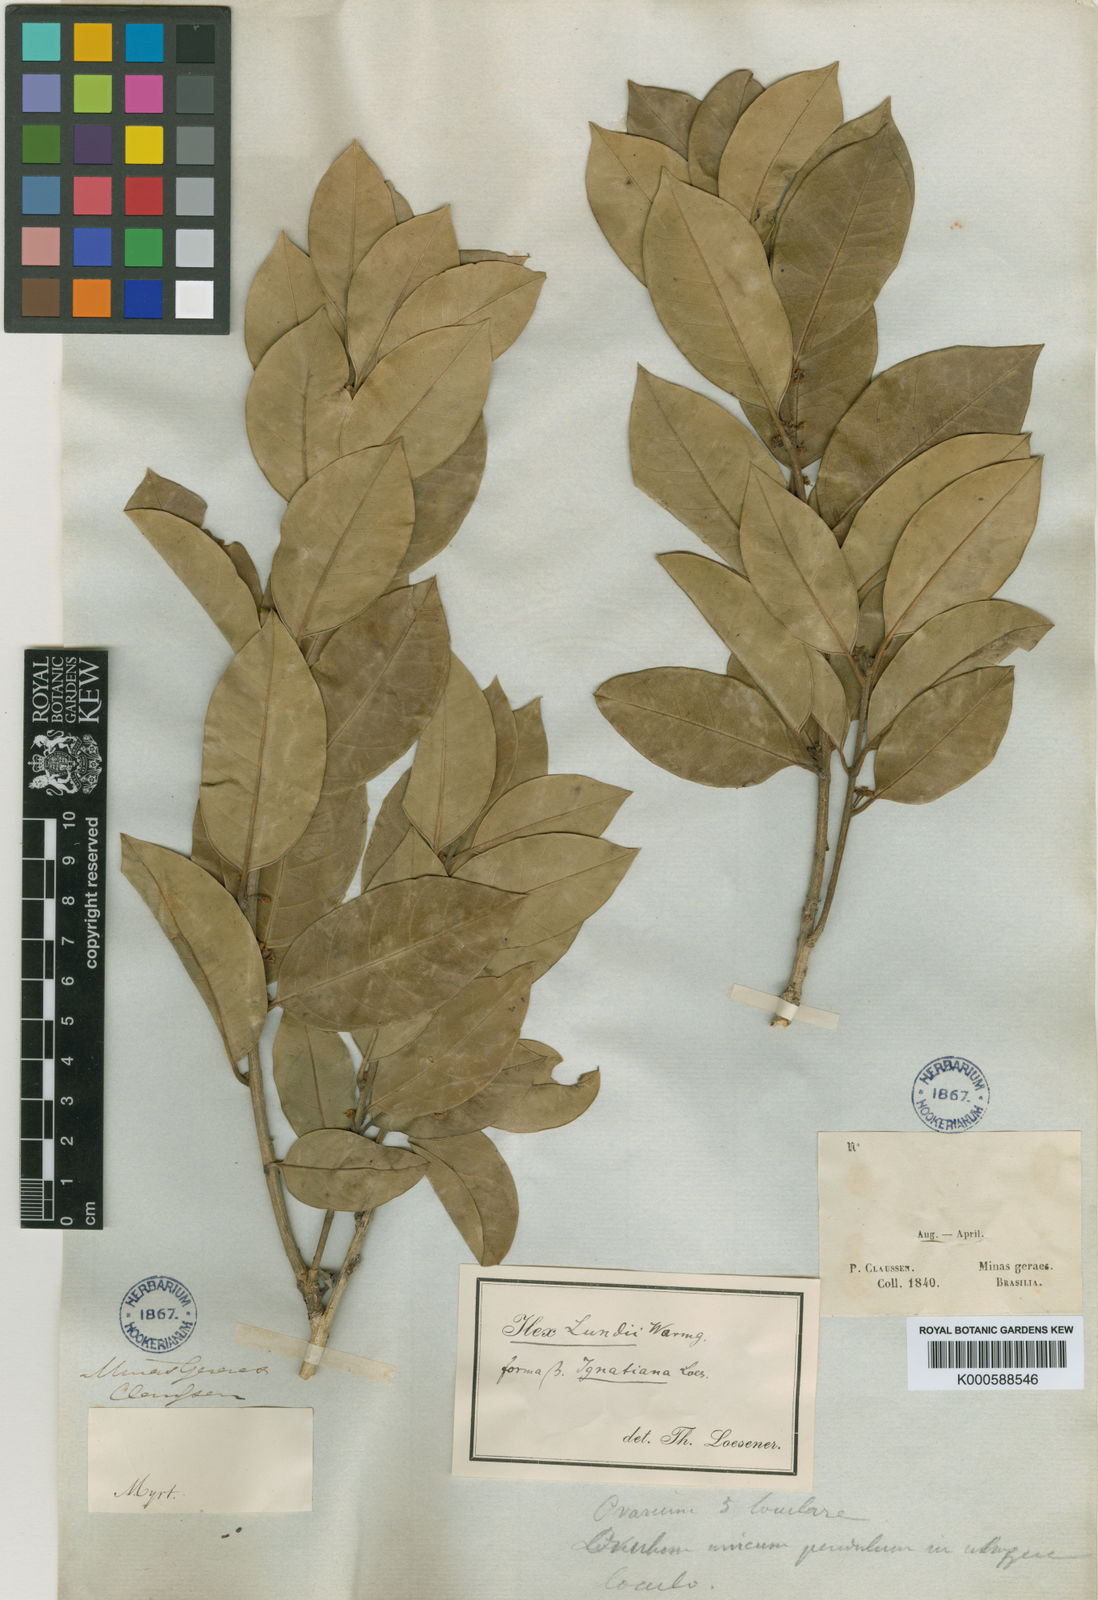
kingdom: Plantae
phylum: Tracheophyta
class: Magnoliopsida
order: Aquifoliales
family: Aquifoliaceae
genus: Ilex
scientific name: Ilex lundii
